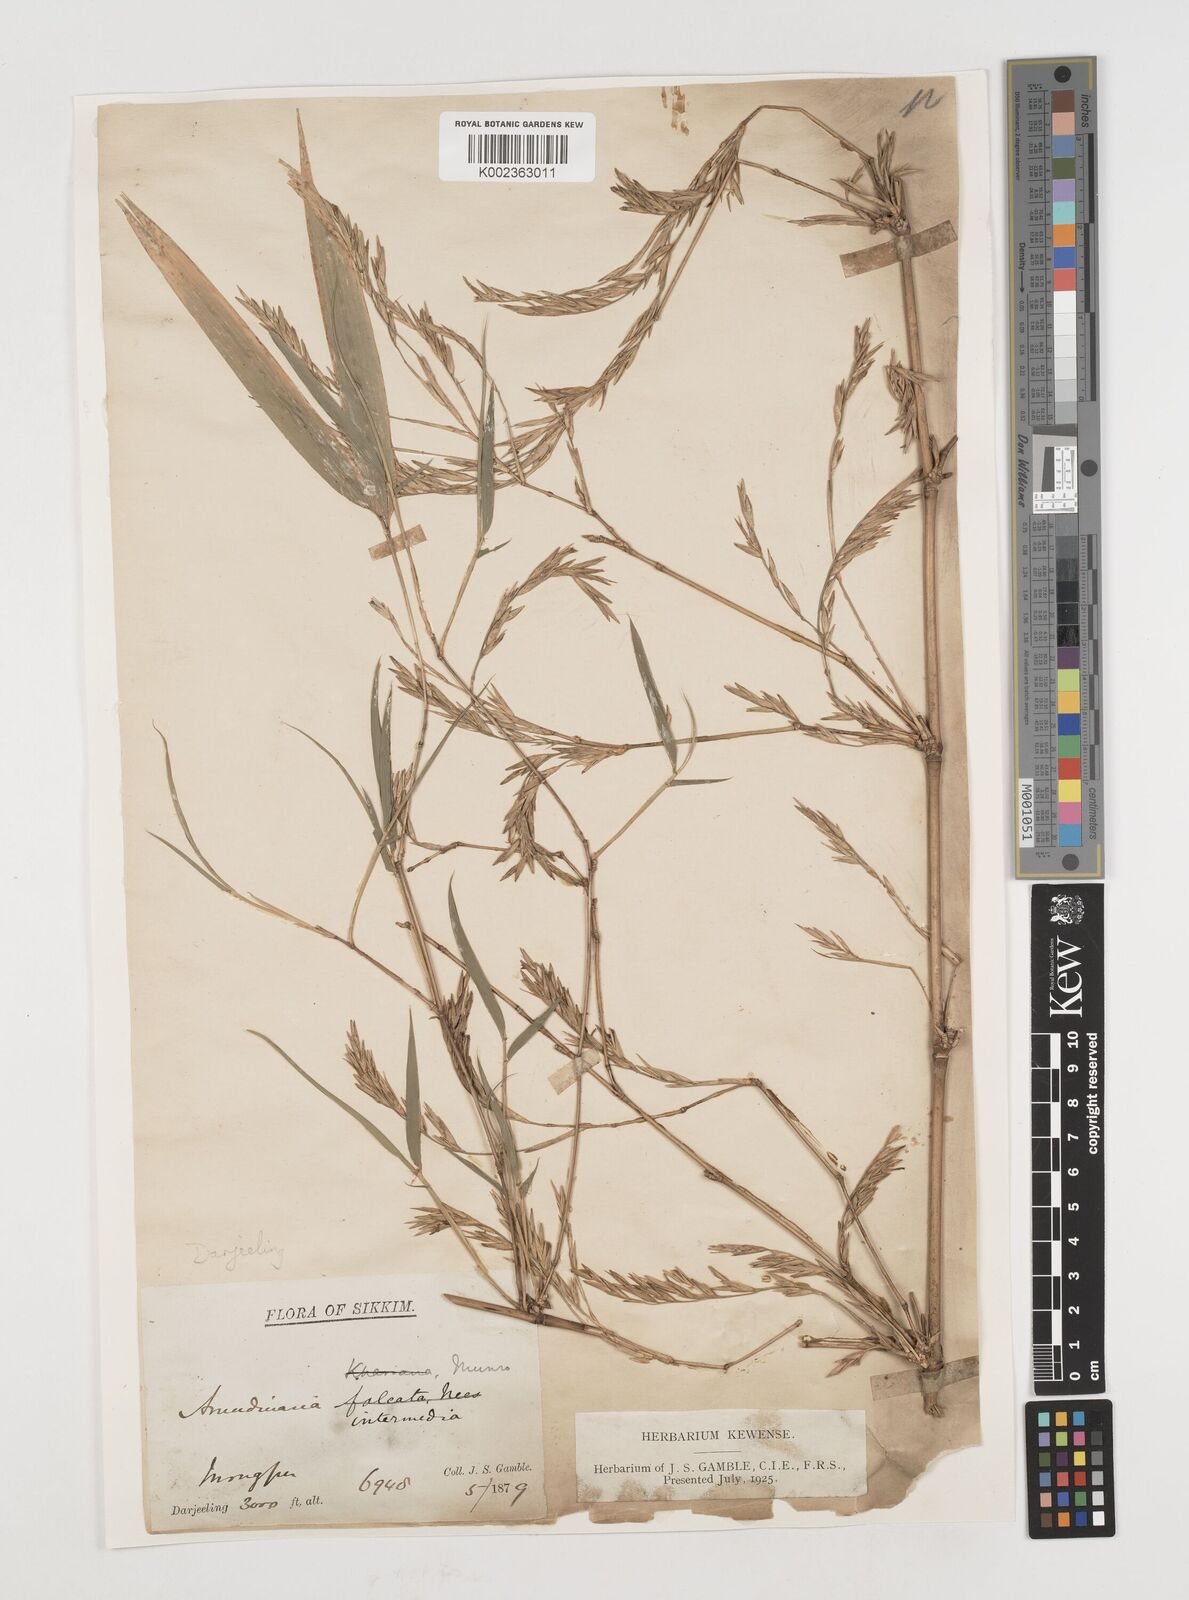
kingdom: Plantae
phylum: Tracheophyta
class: Liliopsida
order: Poales
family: Poaceae
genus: Drepanostachyum
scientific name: Drepanostachyum
